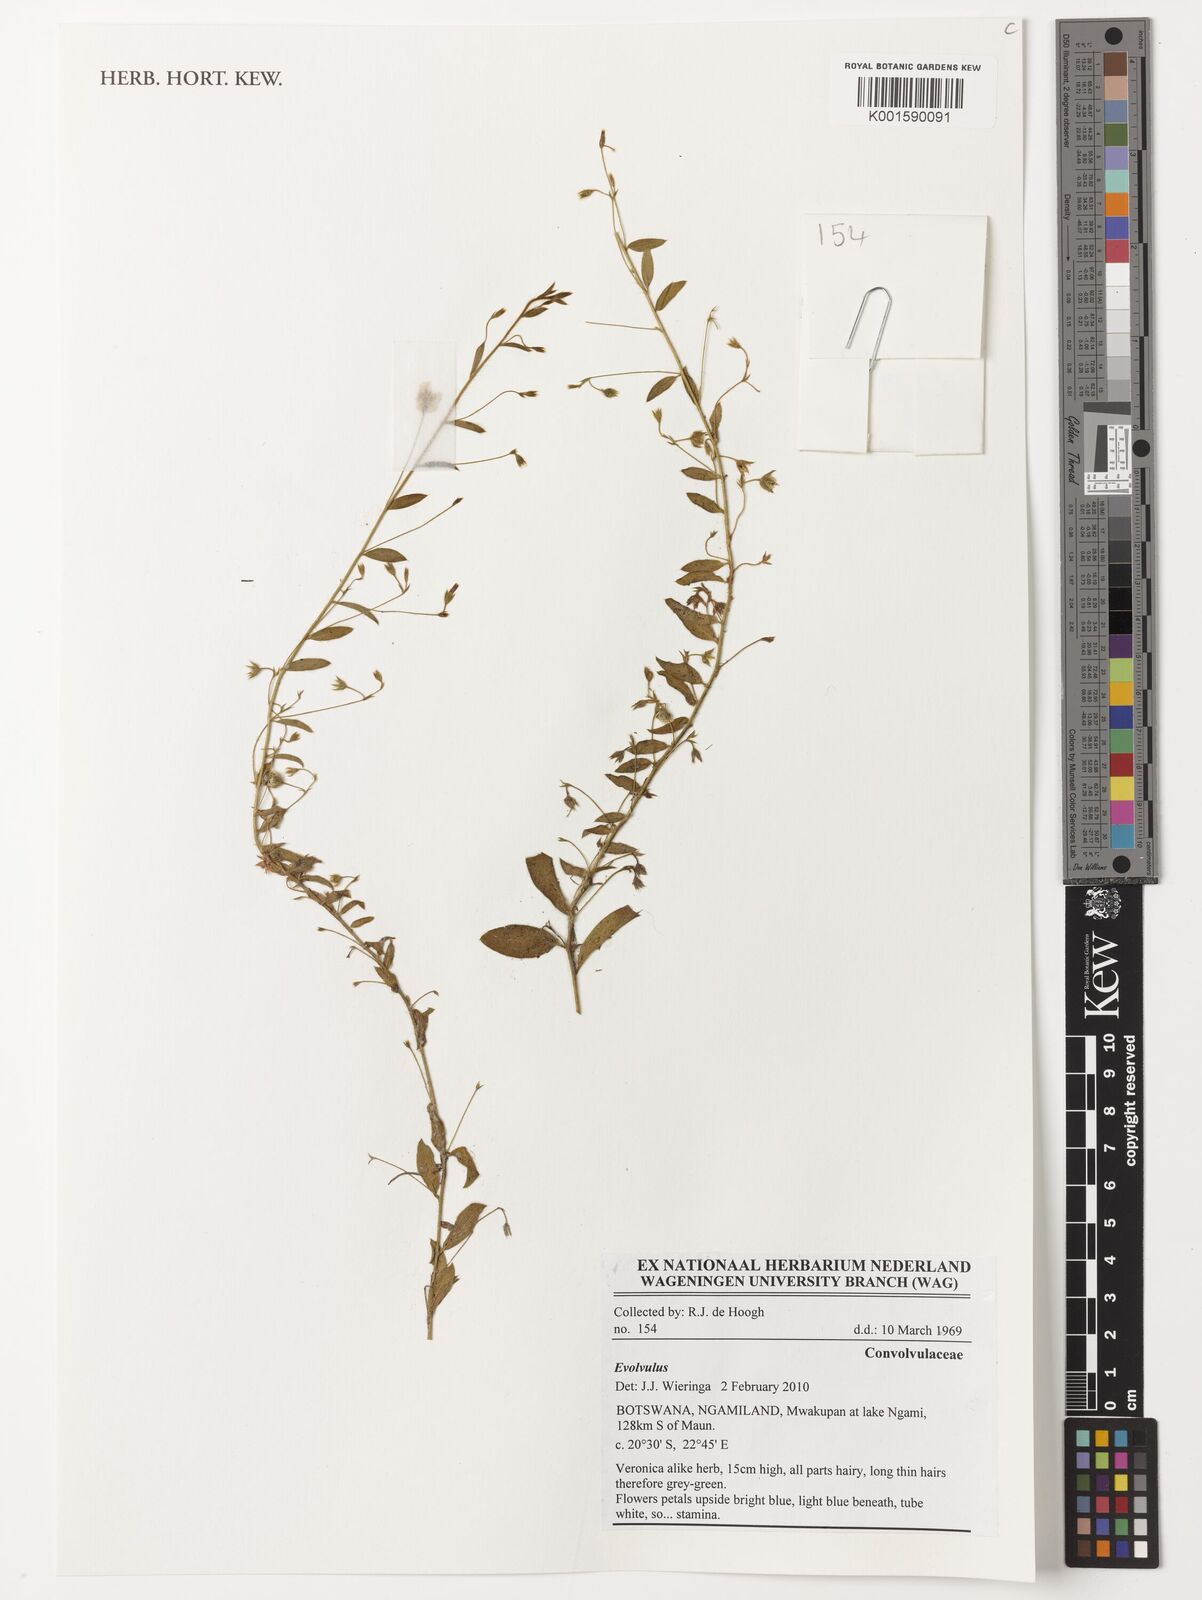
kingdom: Plantae
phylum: Tracheophyta
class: Magnoliopsida
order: Solanales
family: Convolvulaceae
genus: Evolvulus
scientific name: Evolvulus
